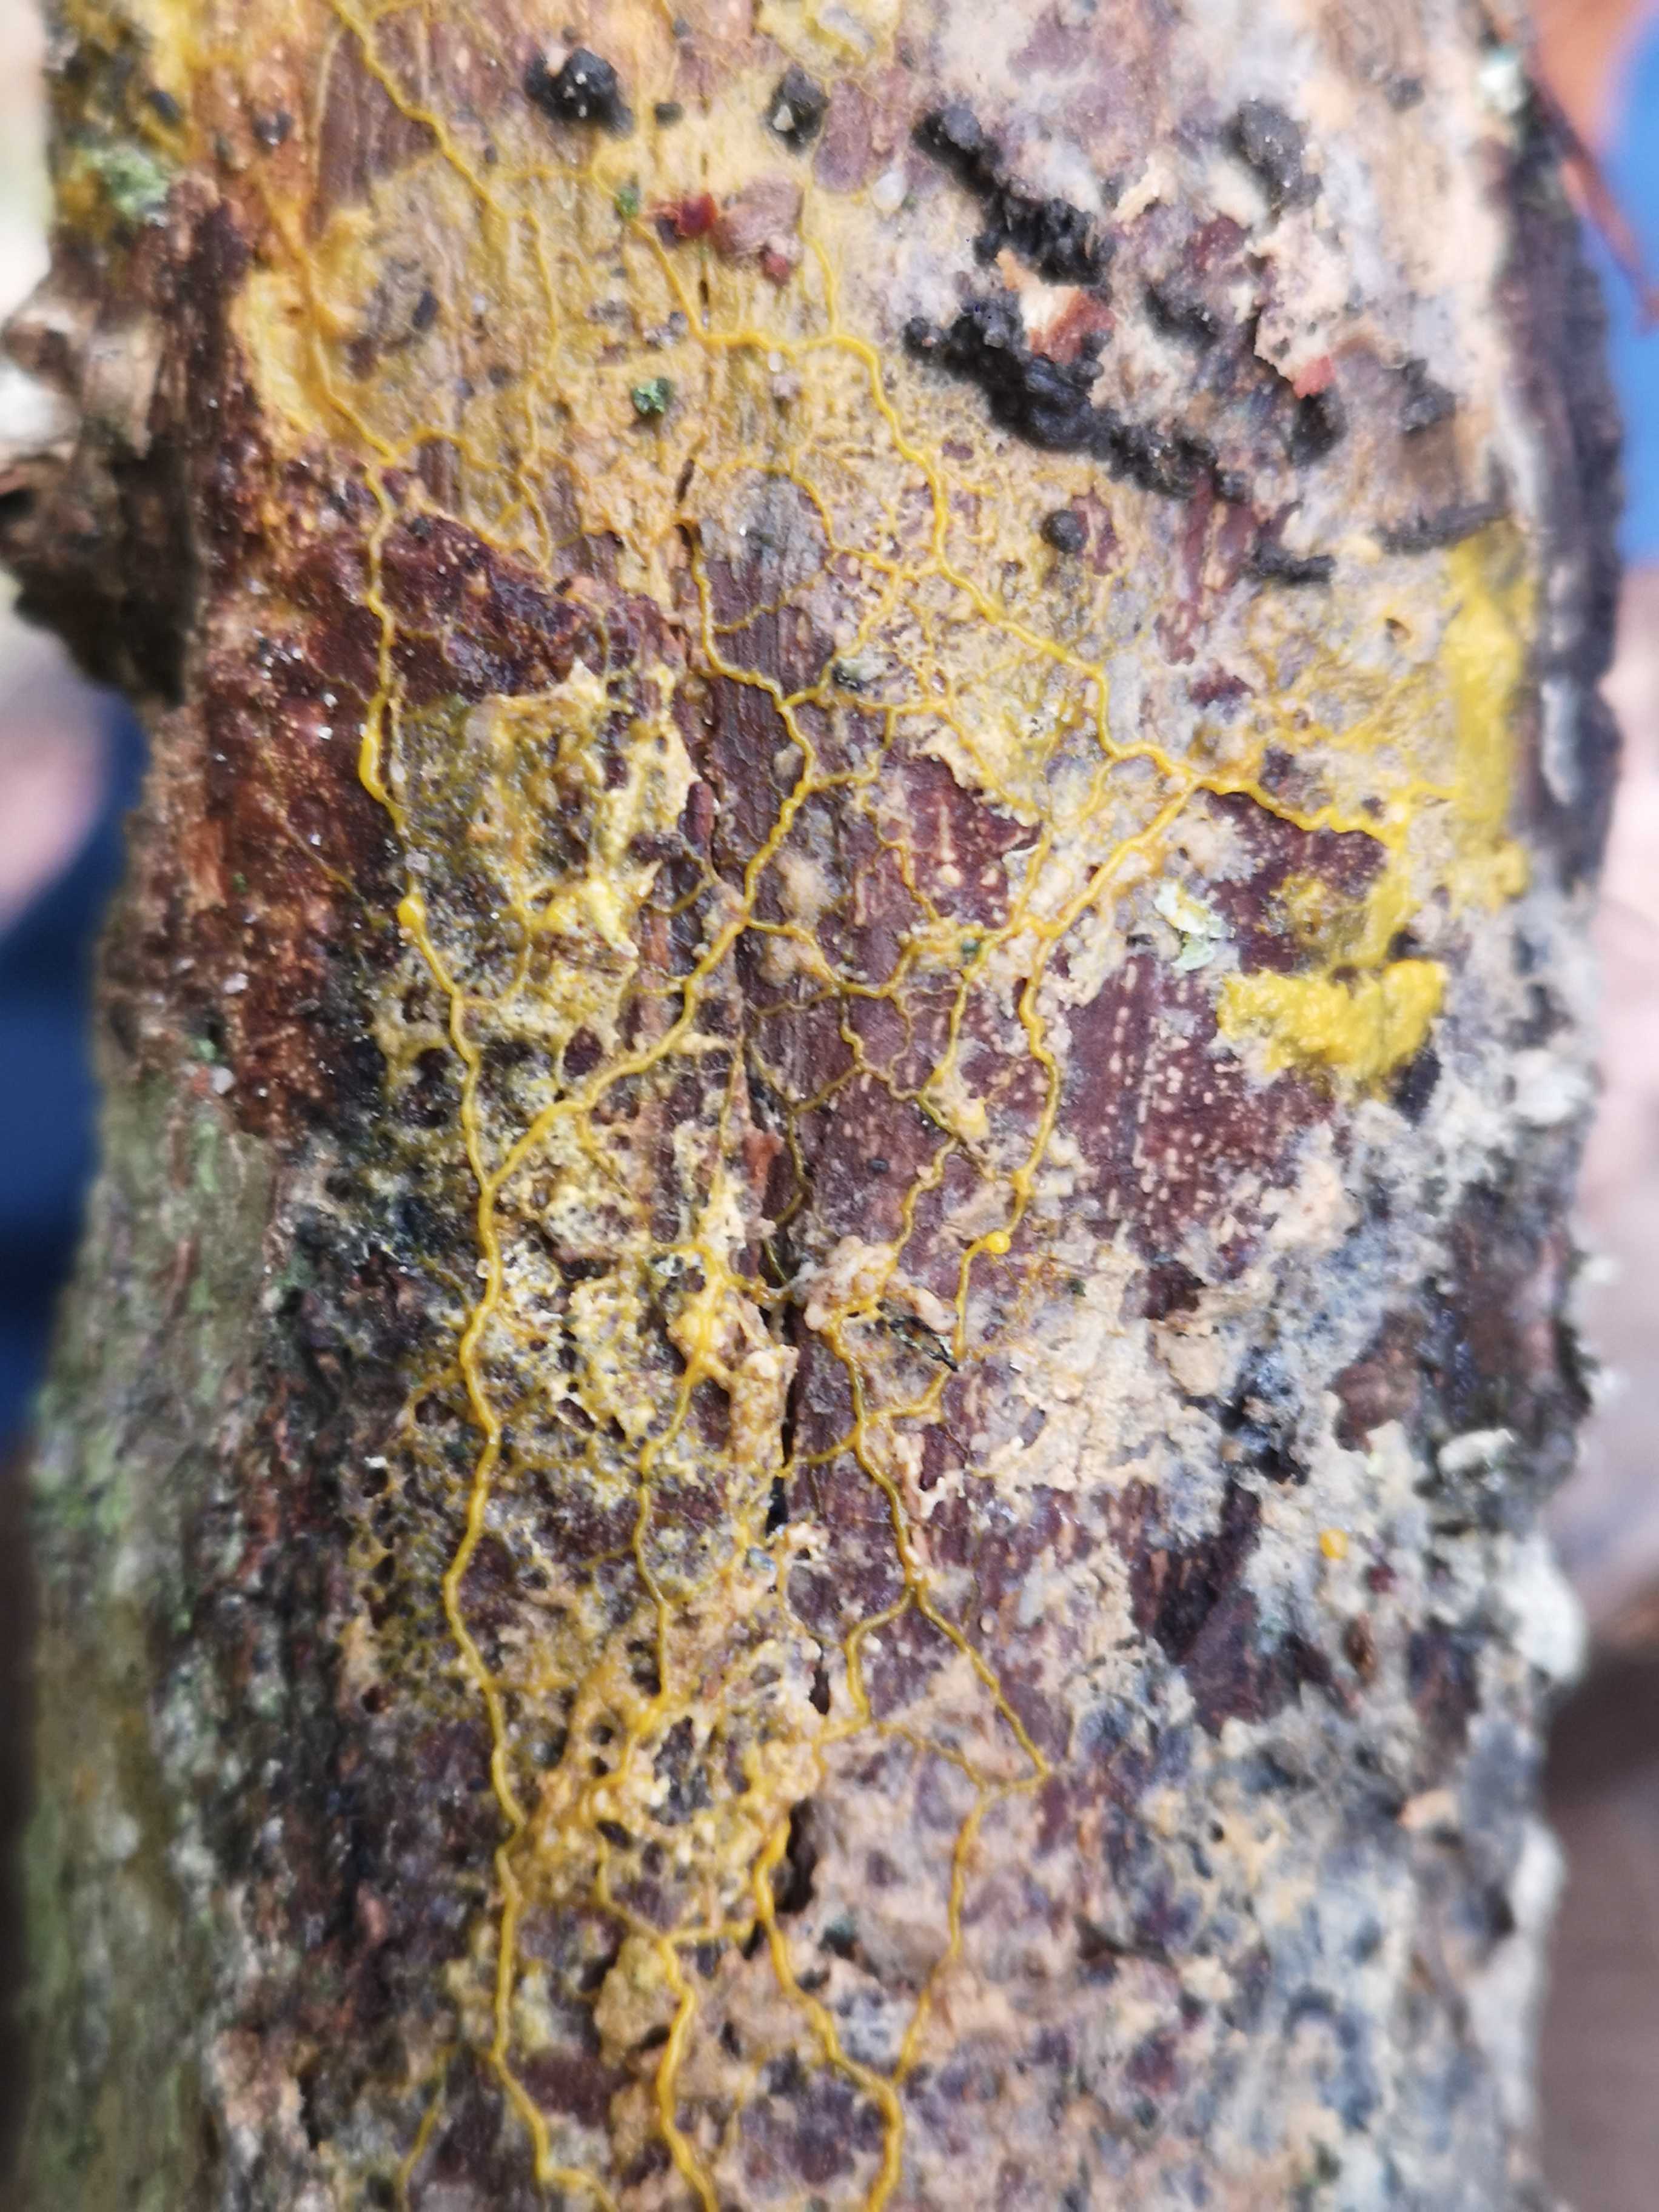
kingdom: Protozoa
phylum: Mycetozoa
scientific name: Mycetozoa
